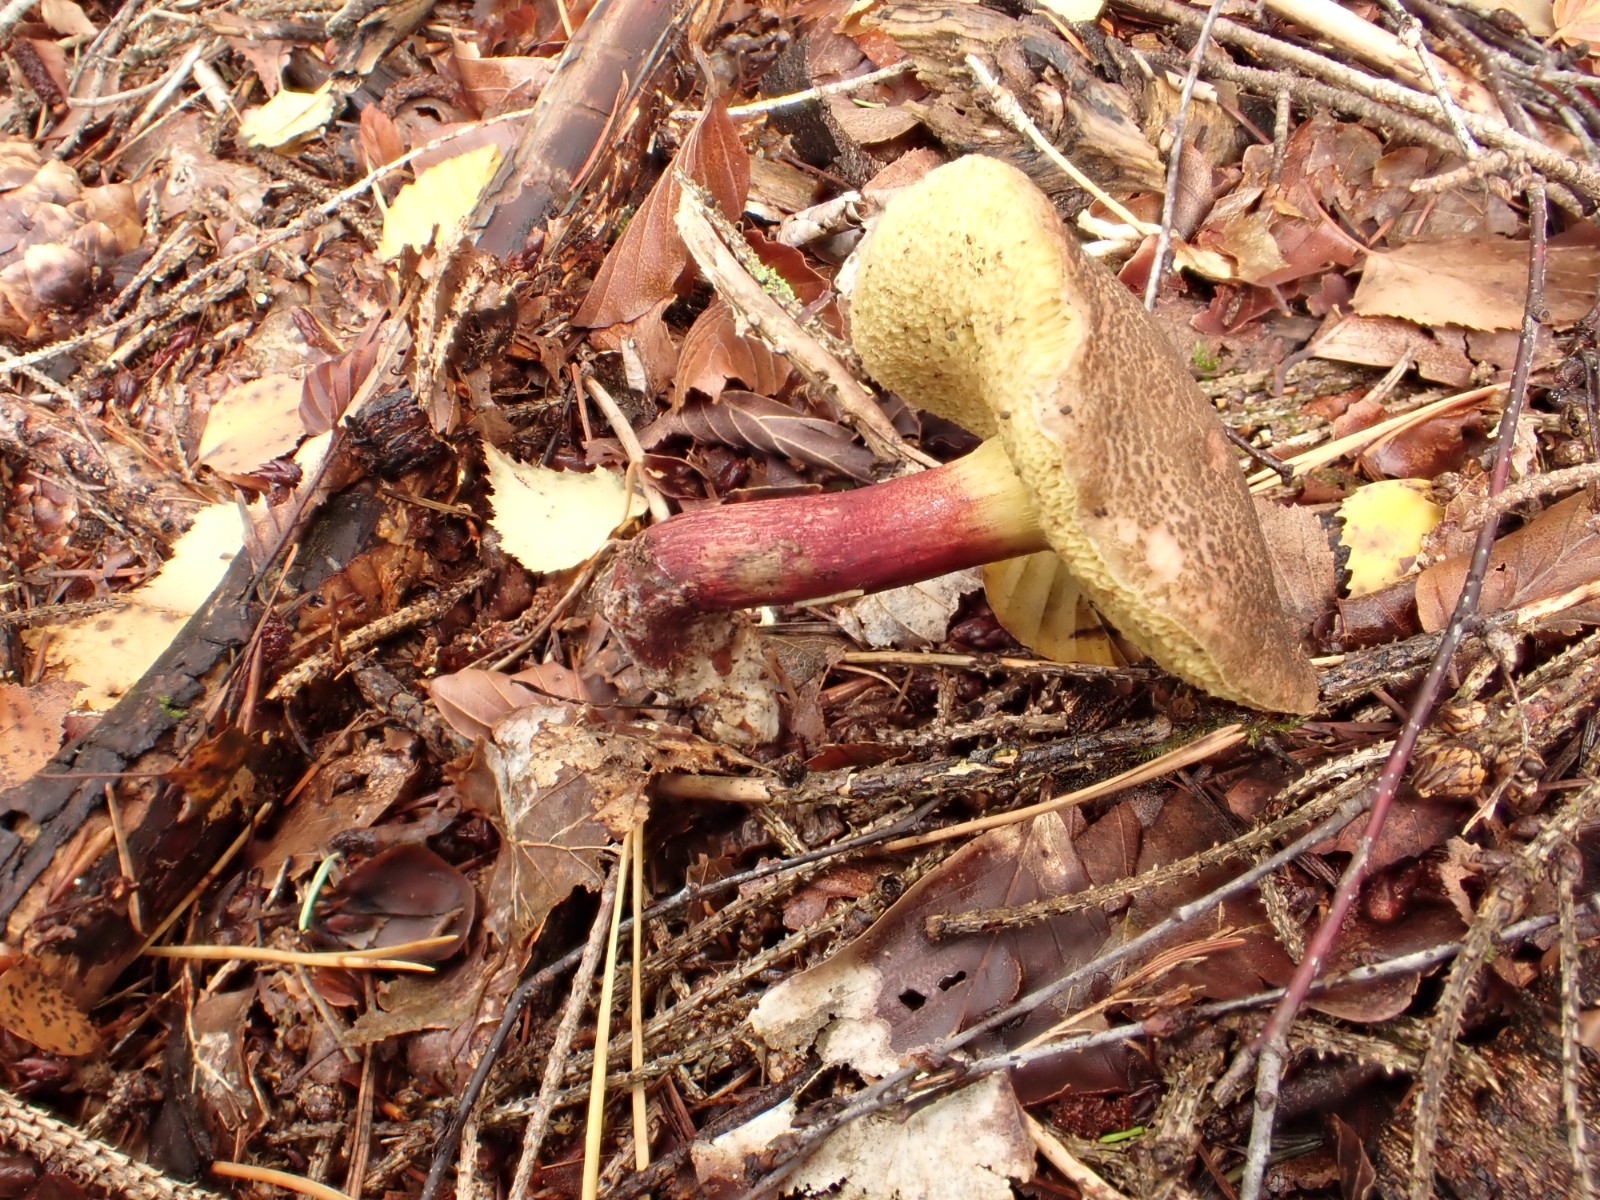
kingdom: Fungi
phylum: Basidiomycota
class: Agaricomycetes
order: Boletales
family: Boletaceae
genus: Xerocomellus
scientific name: Xerocomellus chrysenteron
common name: rødsprukken rørhat
